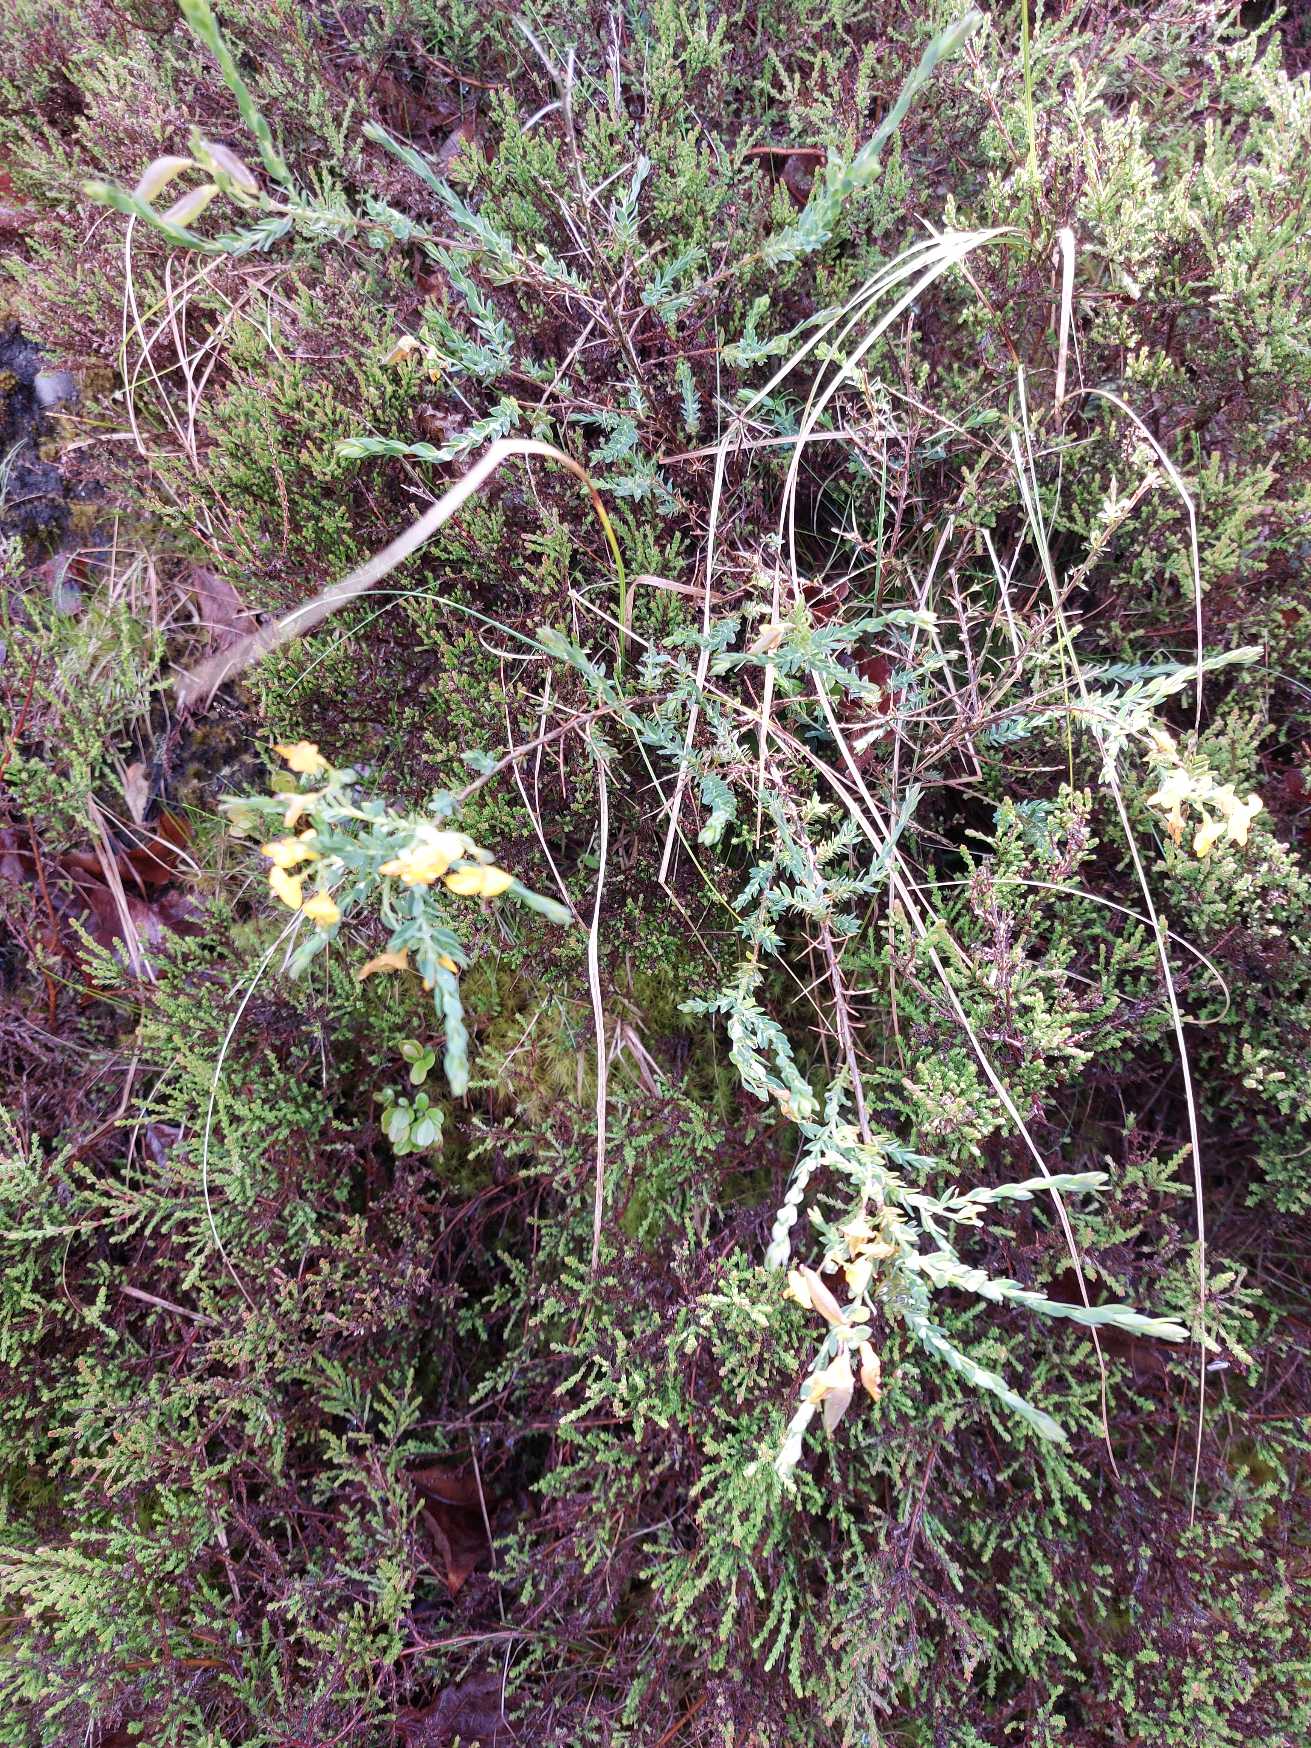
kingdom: Plantae
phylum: Tracheophyta
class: Magnoliopsida
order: Fabales
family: Fabaceae
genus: Genista
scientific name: Genista anglica
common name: Engelsk visse
